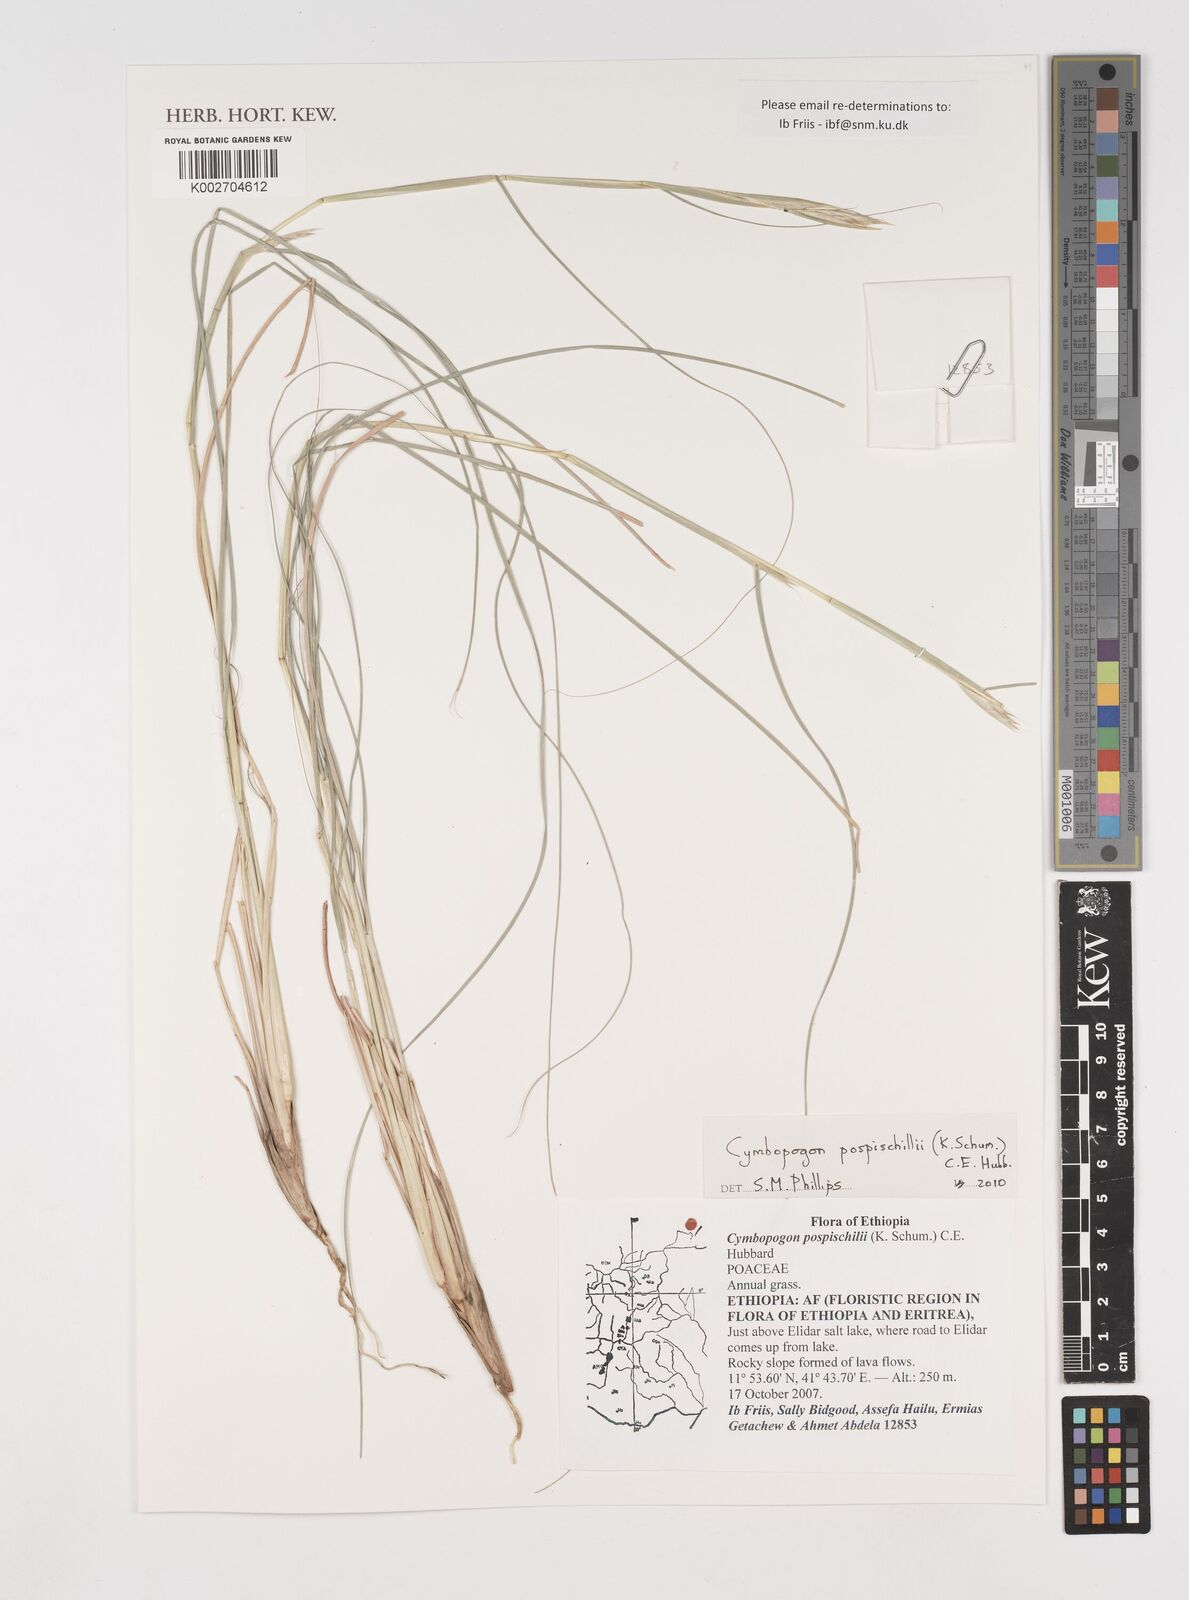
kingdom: Plantae
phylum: Tracheophyta
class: Liliopsida
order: Poales
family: Poaceae
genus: Cymbopogon
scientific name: Cymbopogon pospischilii
